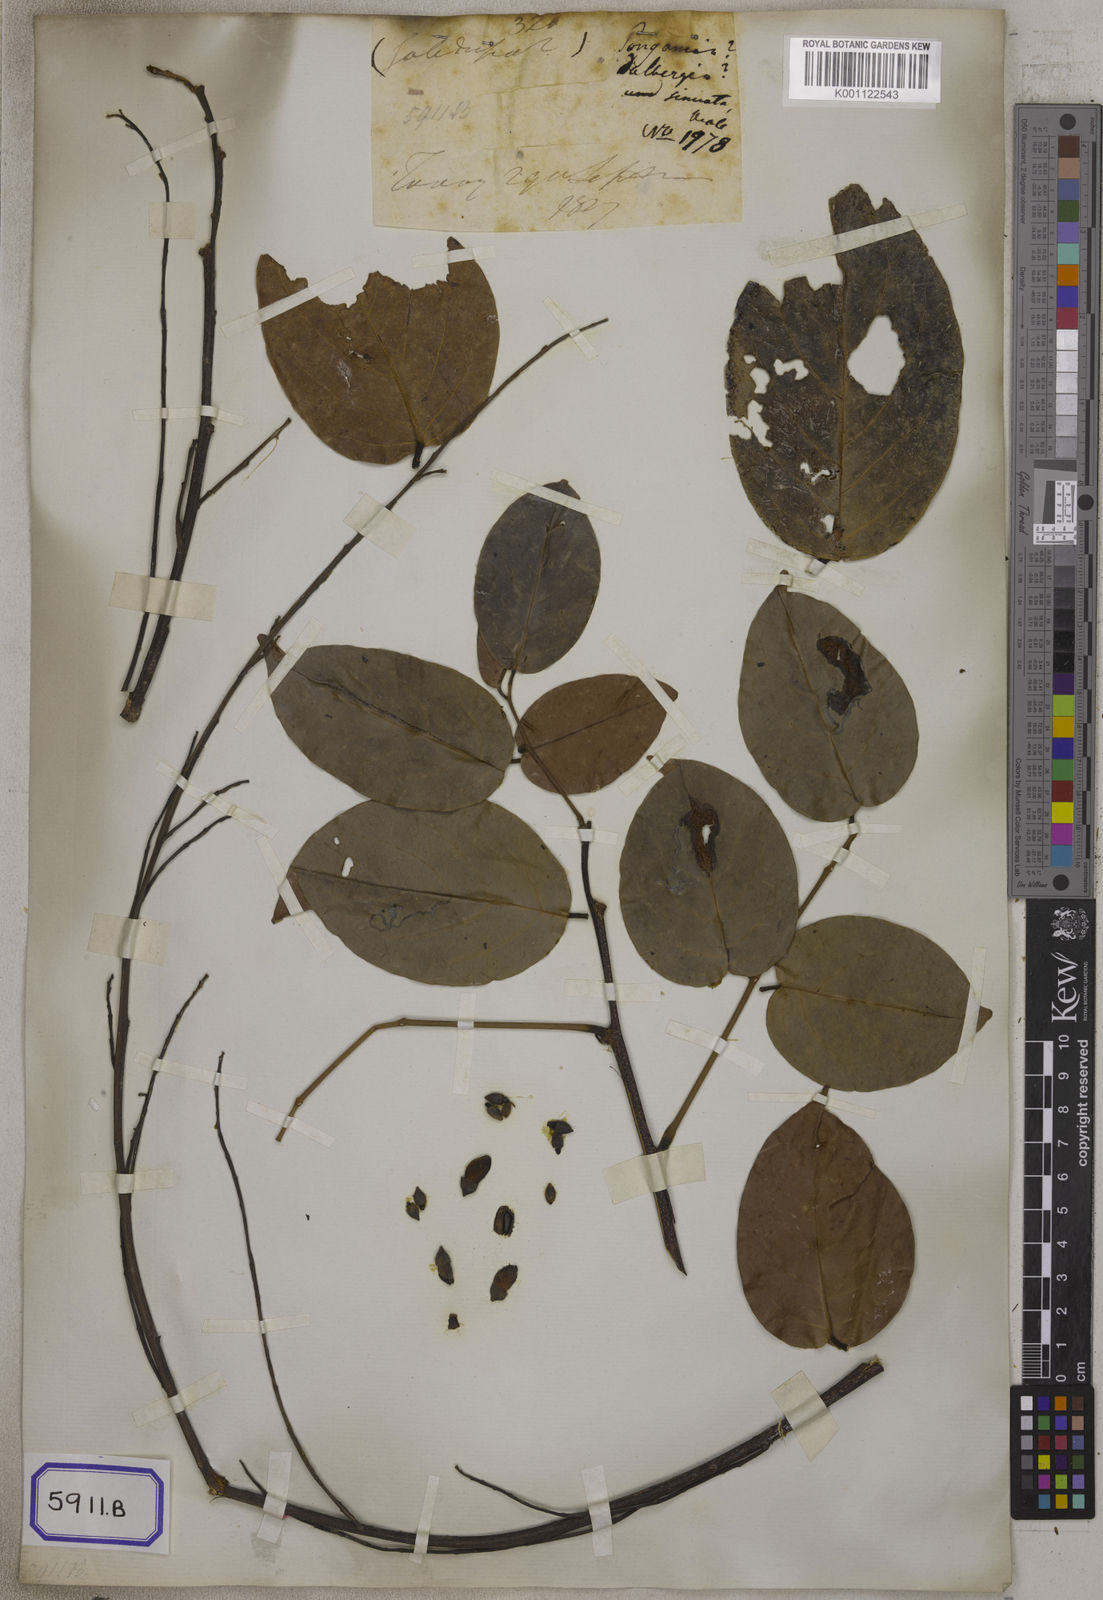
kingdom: Plantae
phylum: Tracheophyta
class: Magnoliopsida
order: Fabales
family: Fabaceae
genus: Aganope
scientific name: Aganope heptaphylla
